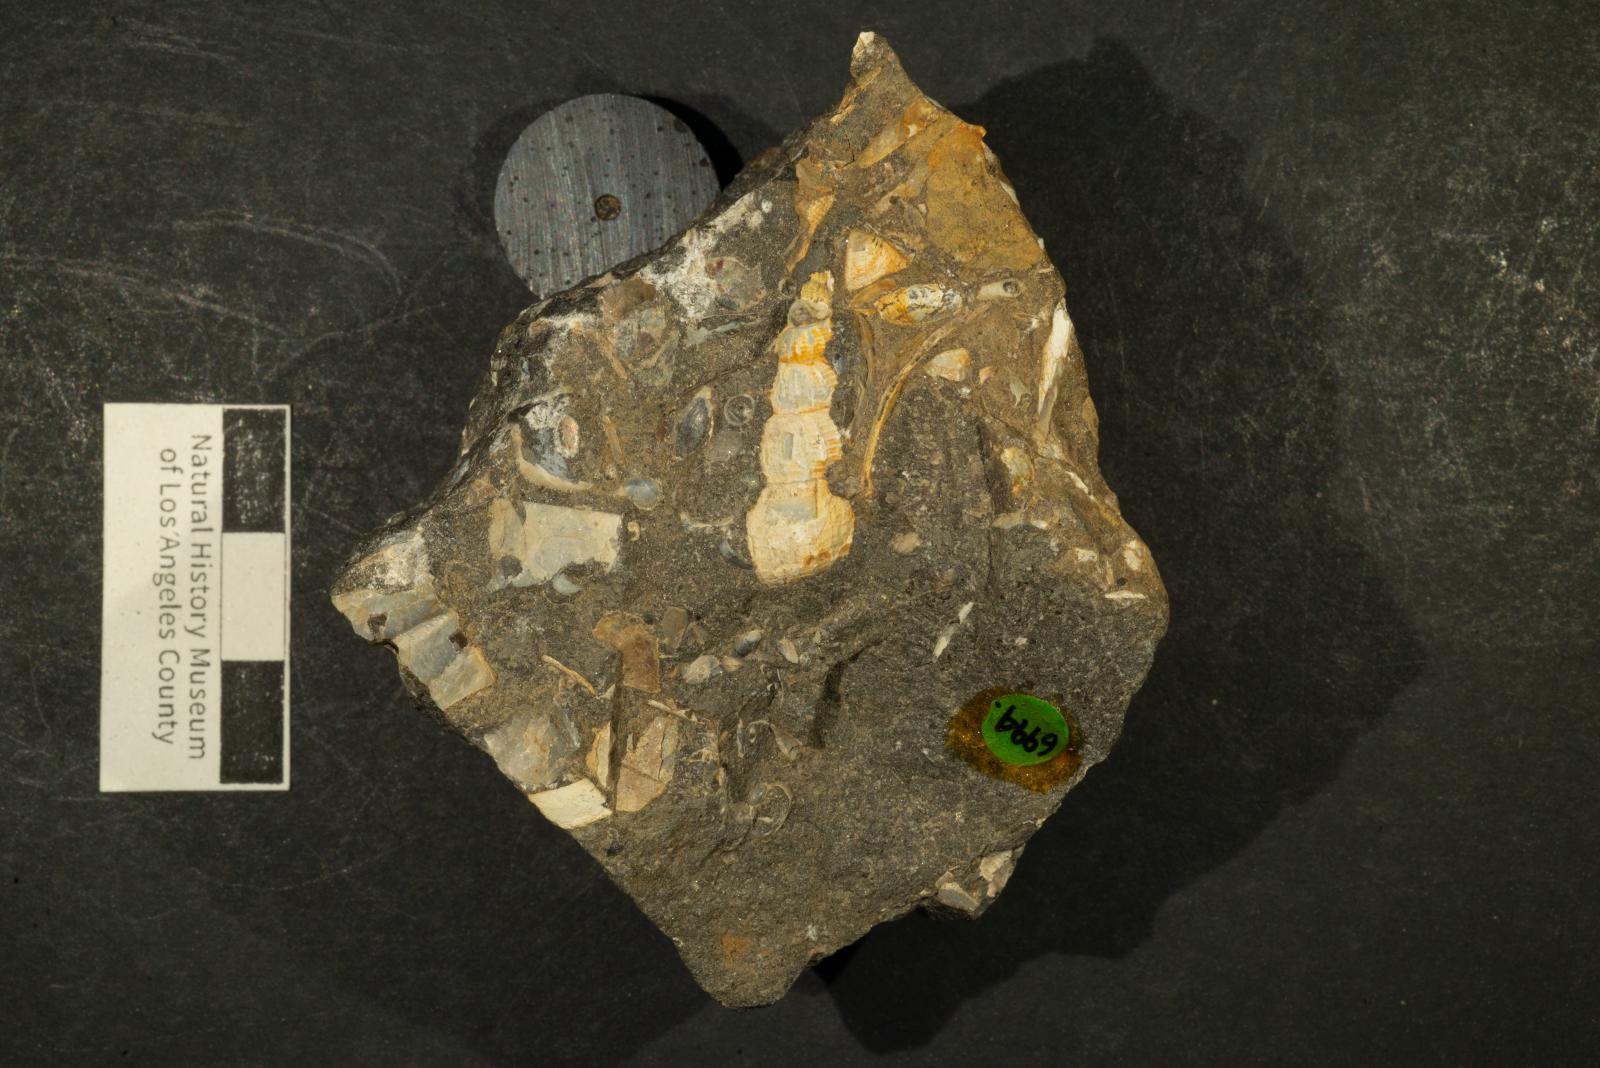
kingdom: Animalia
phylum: Mollusca
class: Gastropoda
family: Epitoniidae
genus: Acirsa
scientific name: Acirsa Ceratia nexilia
